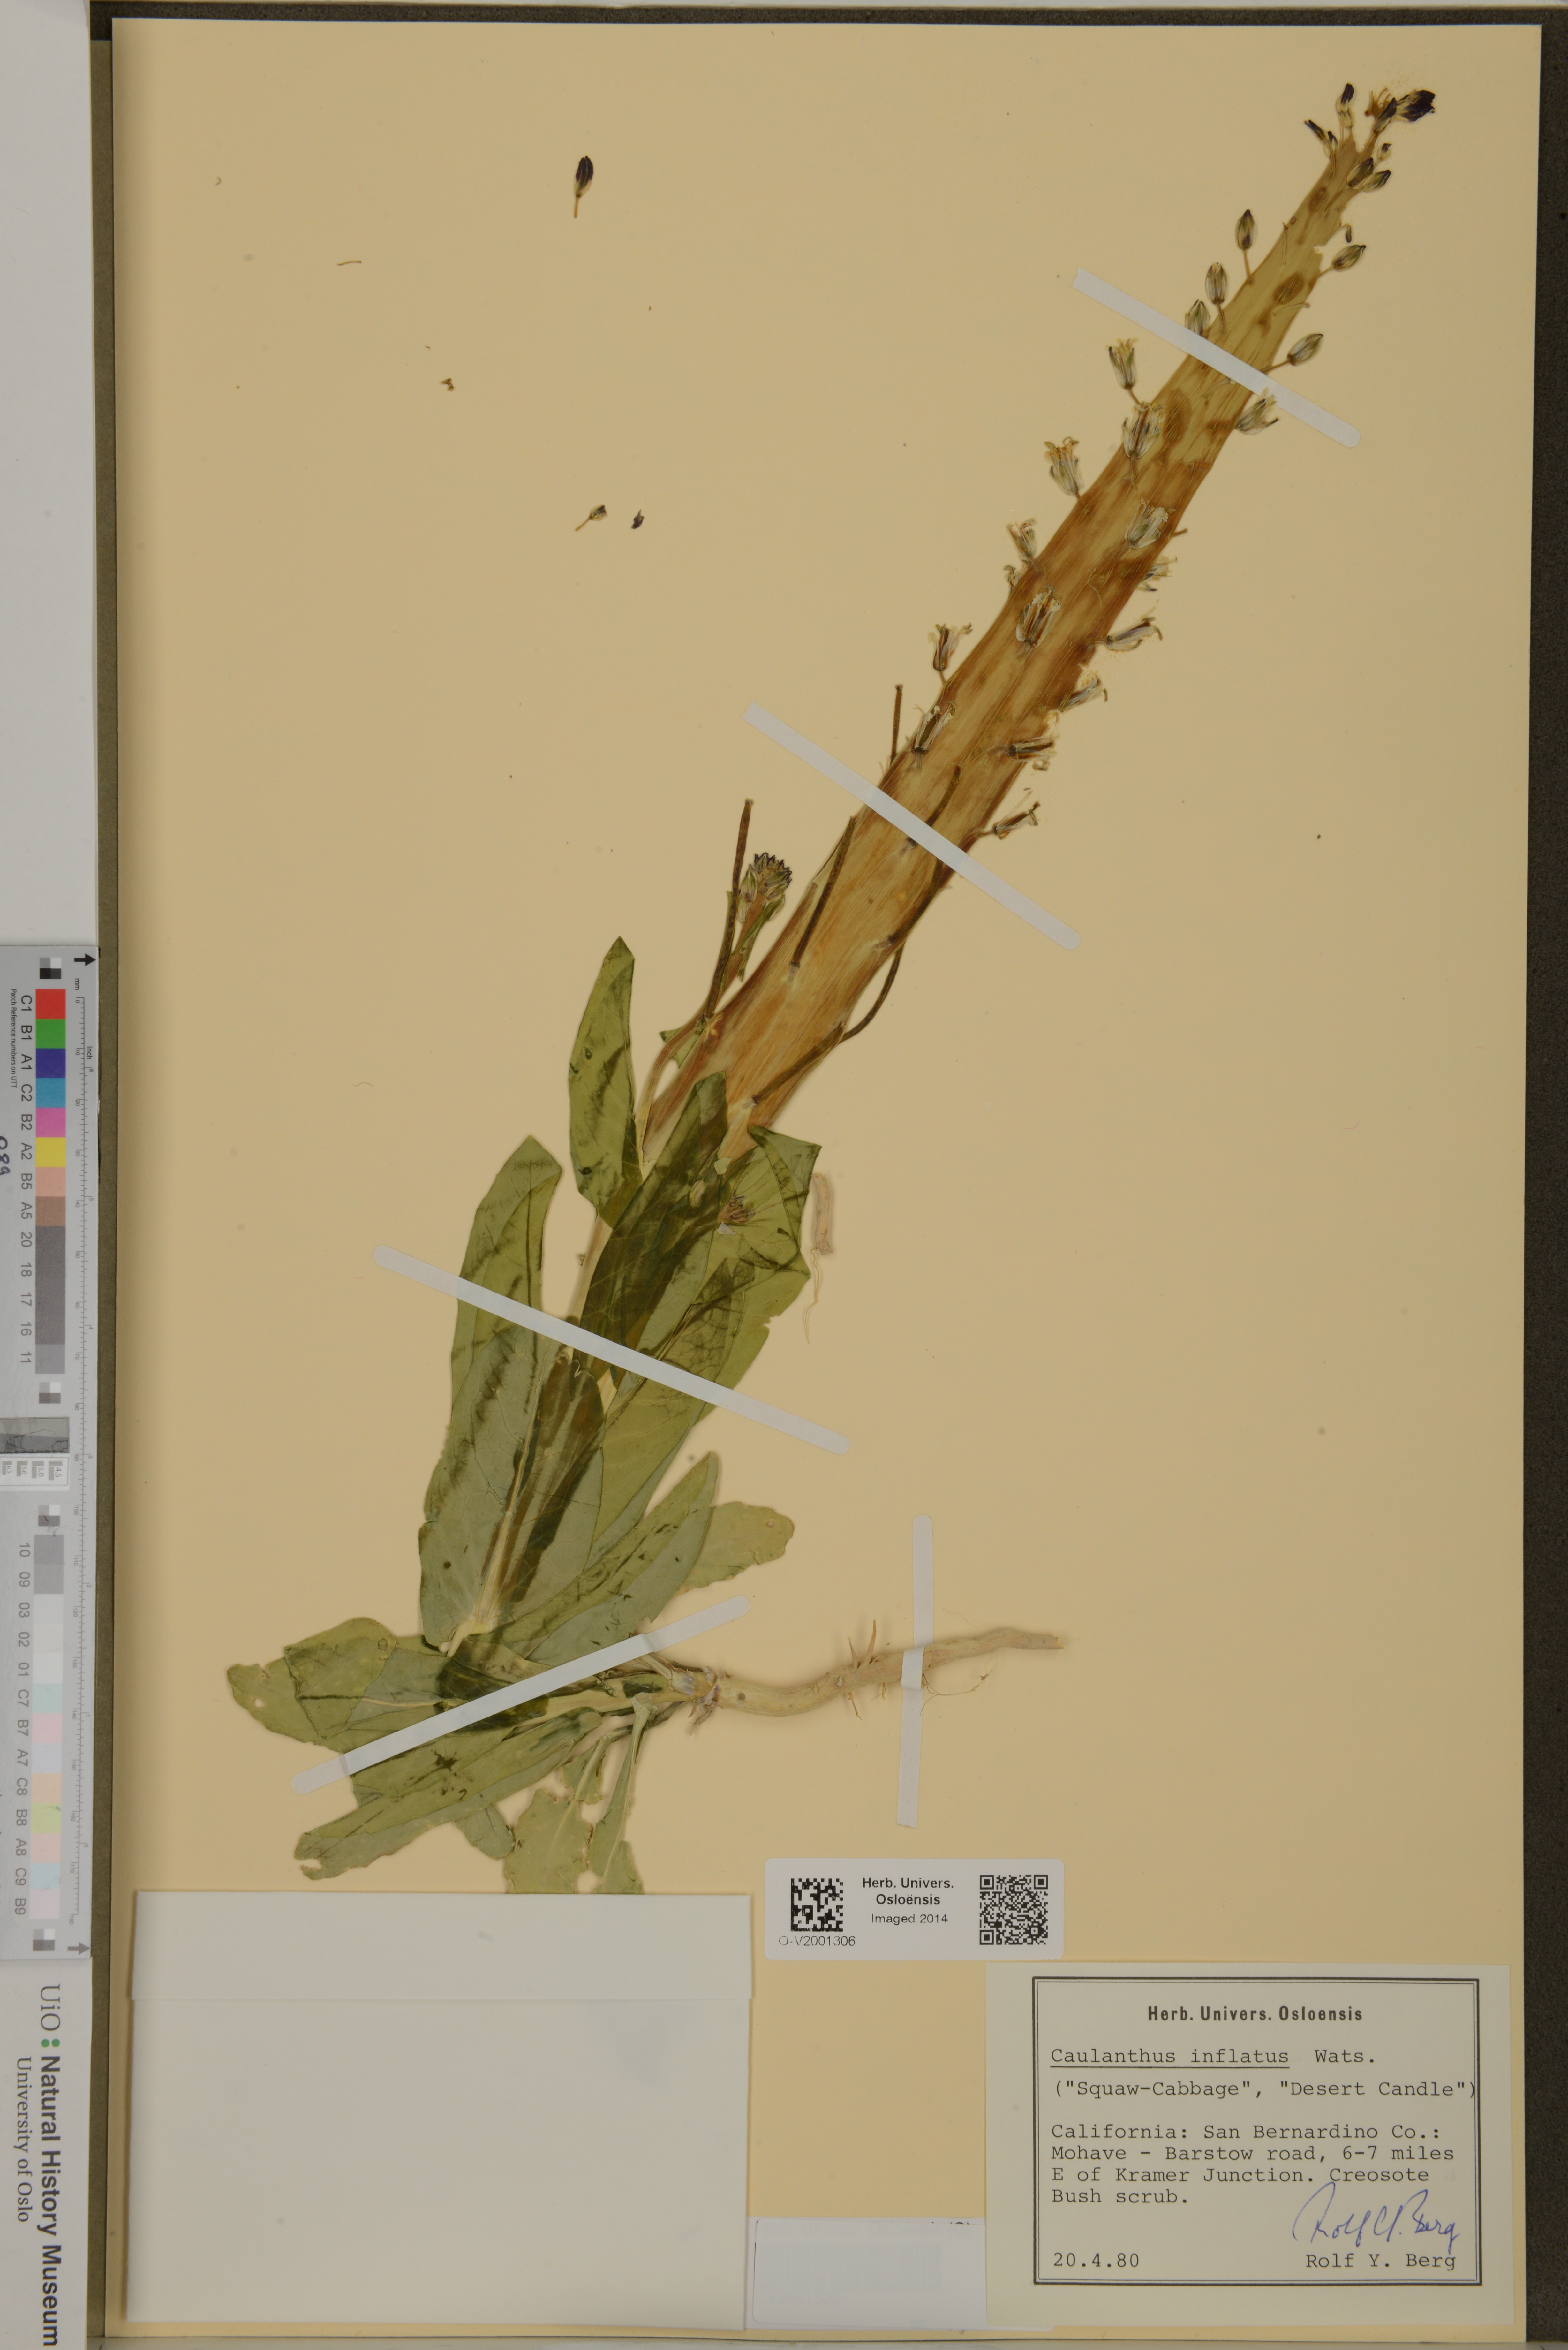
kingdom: Plantae
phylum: Tracheophyta
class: Magnoliopsida
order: Brassicales
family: Brassicaceae
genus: Streptanthus
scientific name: Streptanthus inflatus
